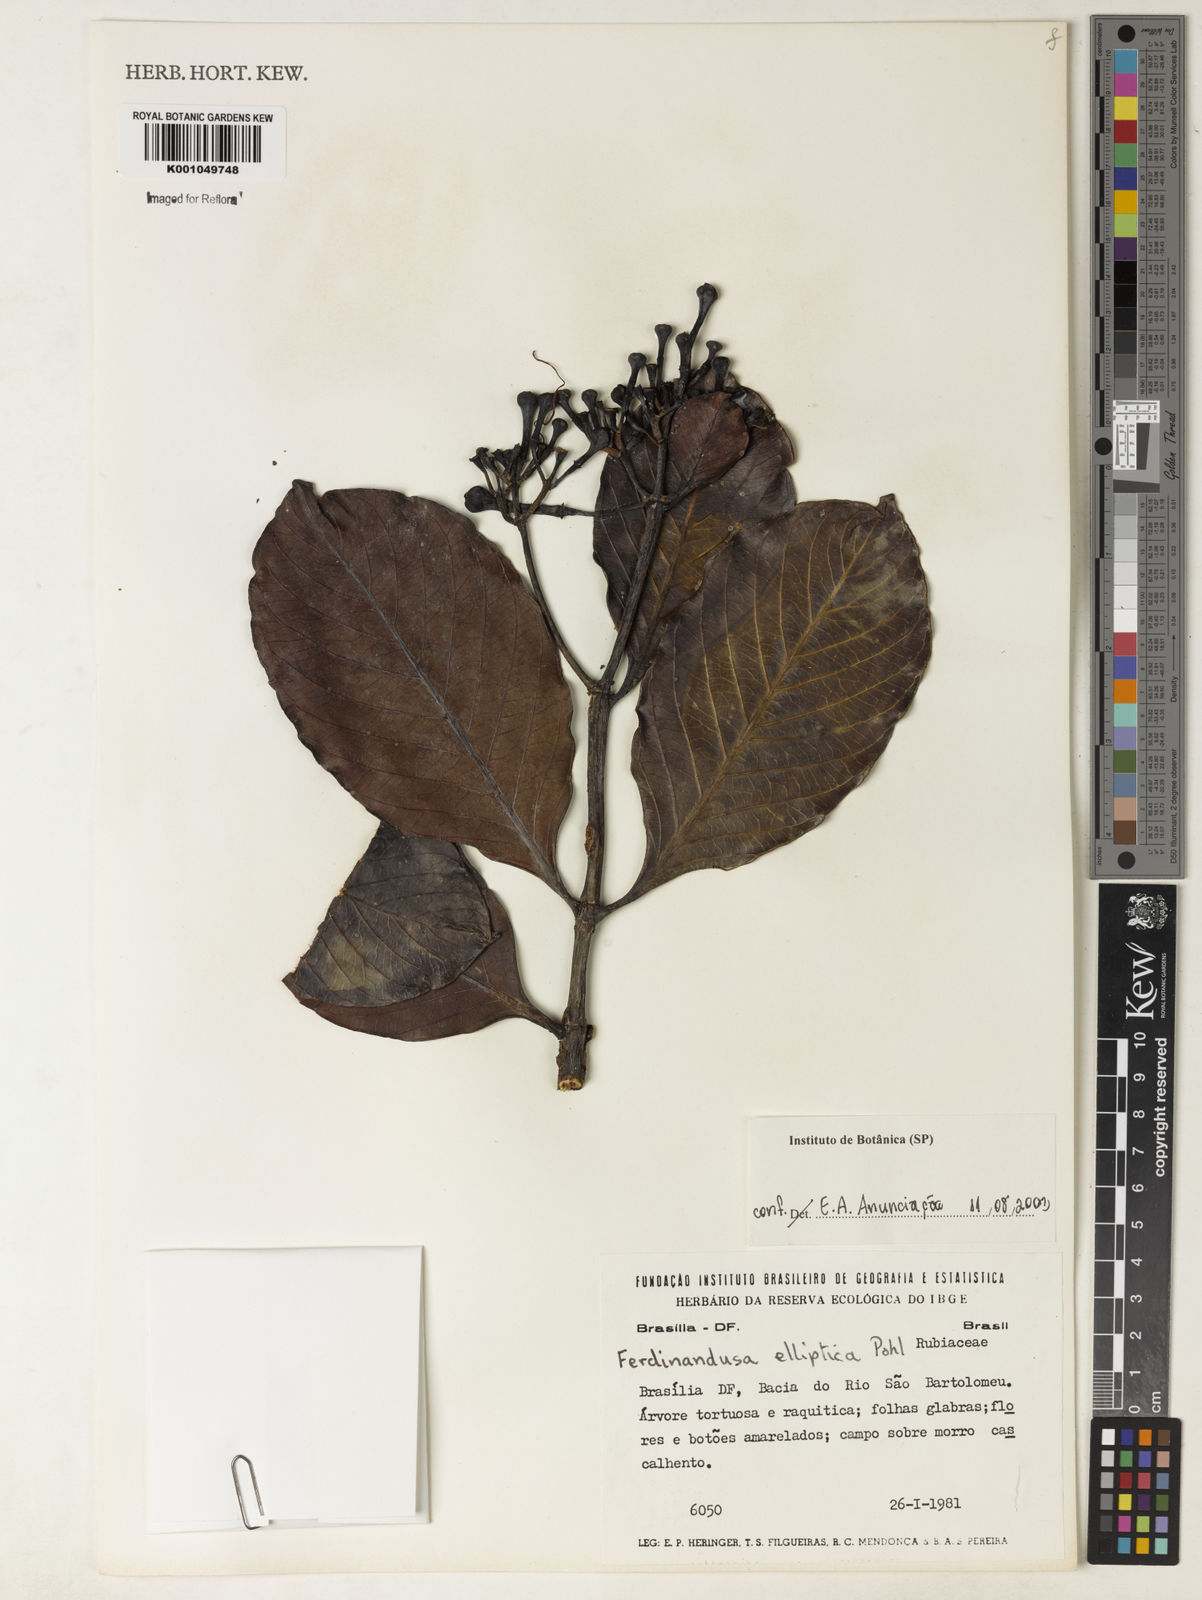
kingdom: Plantae
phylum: Tracheophyta
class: Magnoliopsida
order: Gentianales
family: Rubiaceae
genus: Ferdinandusa
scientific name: Ferdinandusa elliptica
